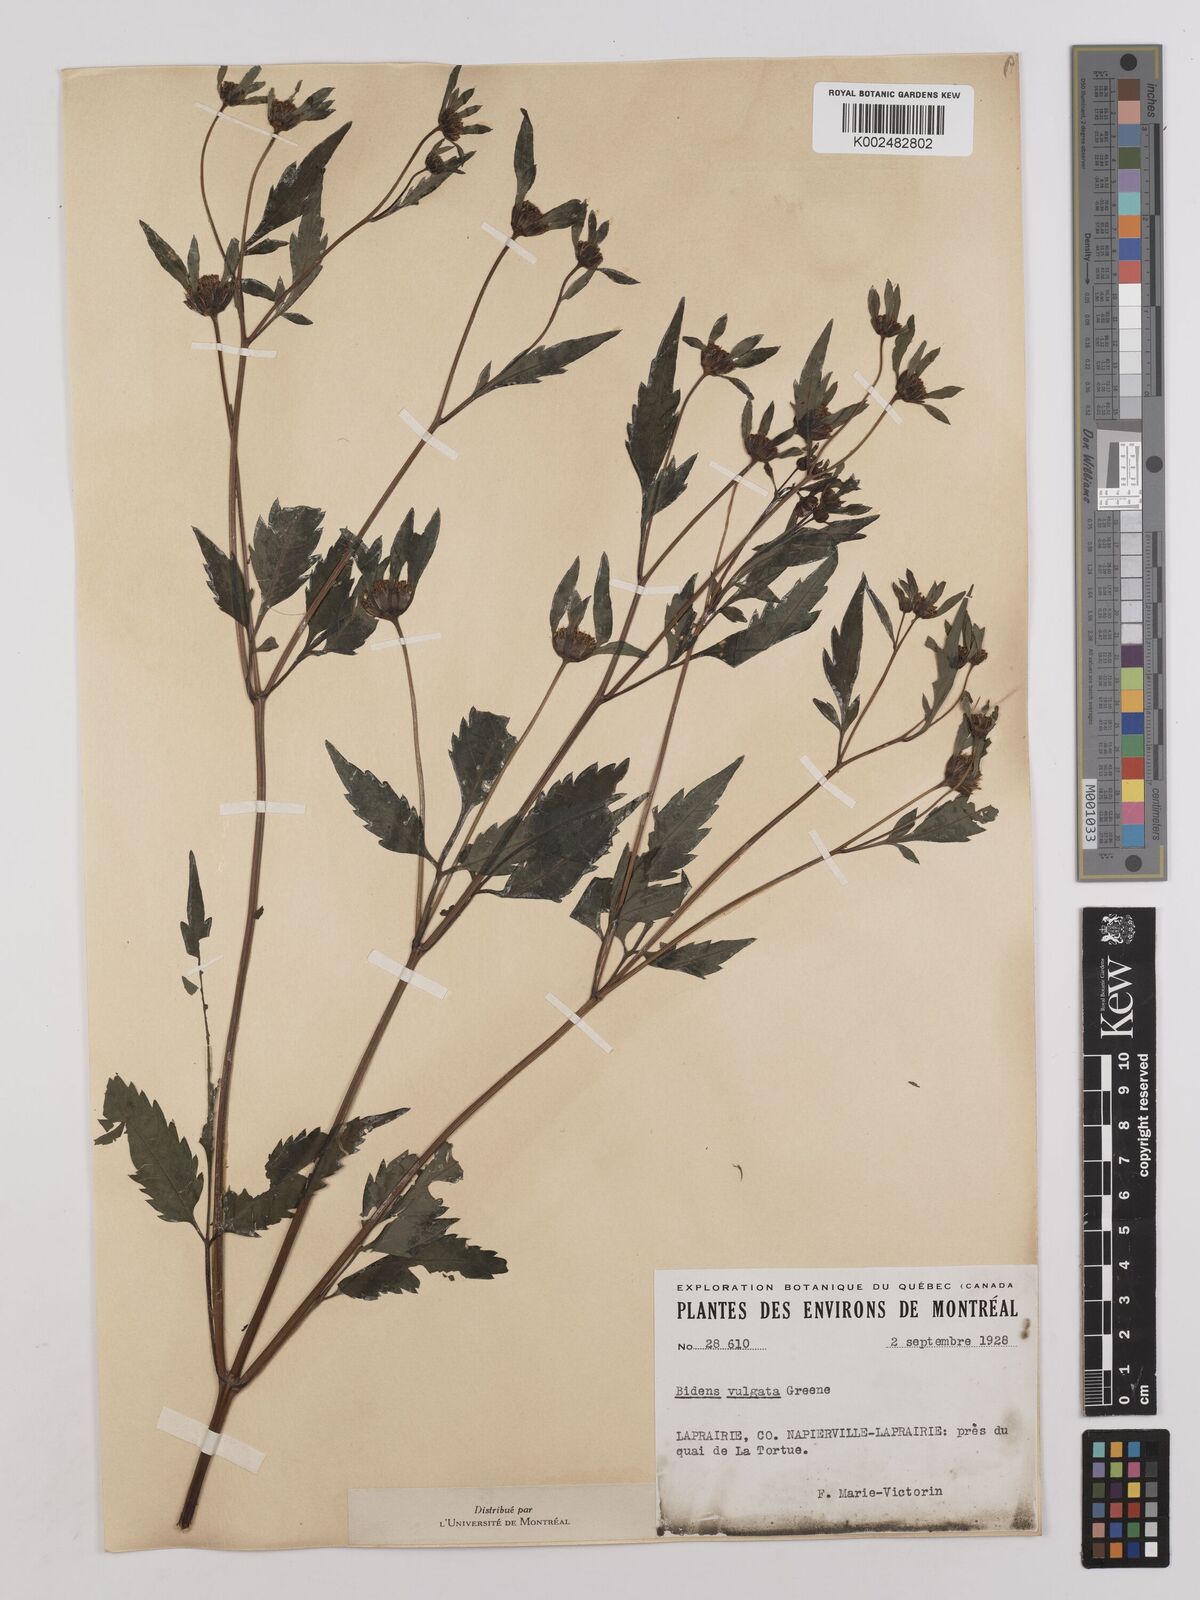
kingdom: Plantae
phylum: Tracheophyta
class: Magnoliopsida
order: Asterales
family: Asteraceae
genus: Bidens
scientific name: Bidens vulgata
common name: Tall beggarticks
